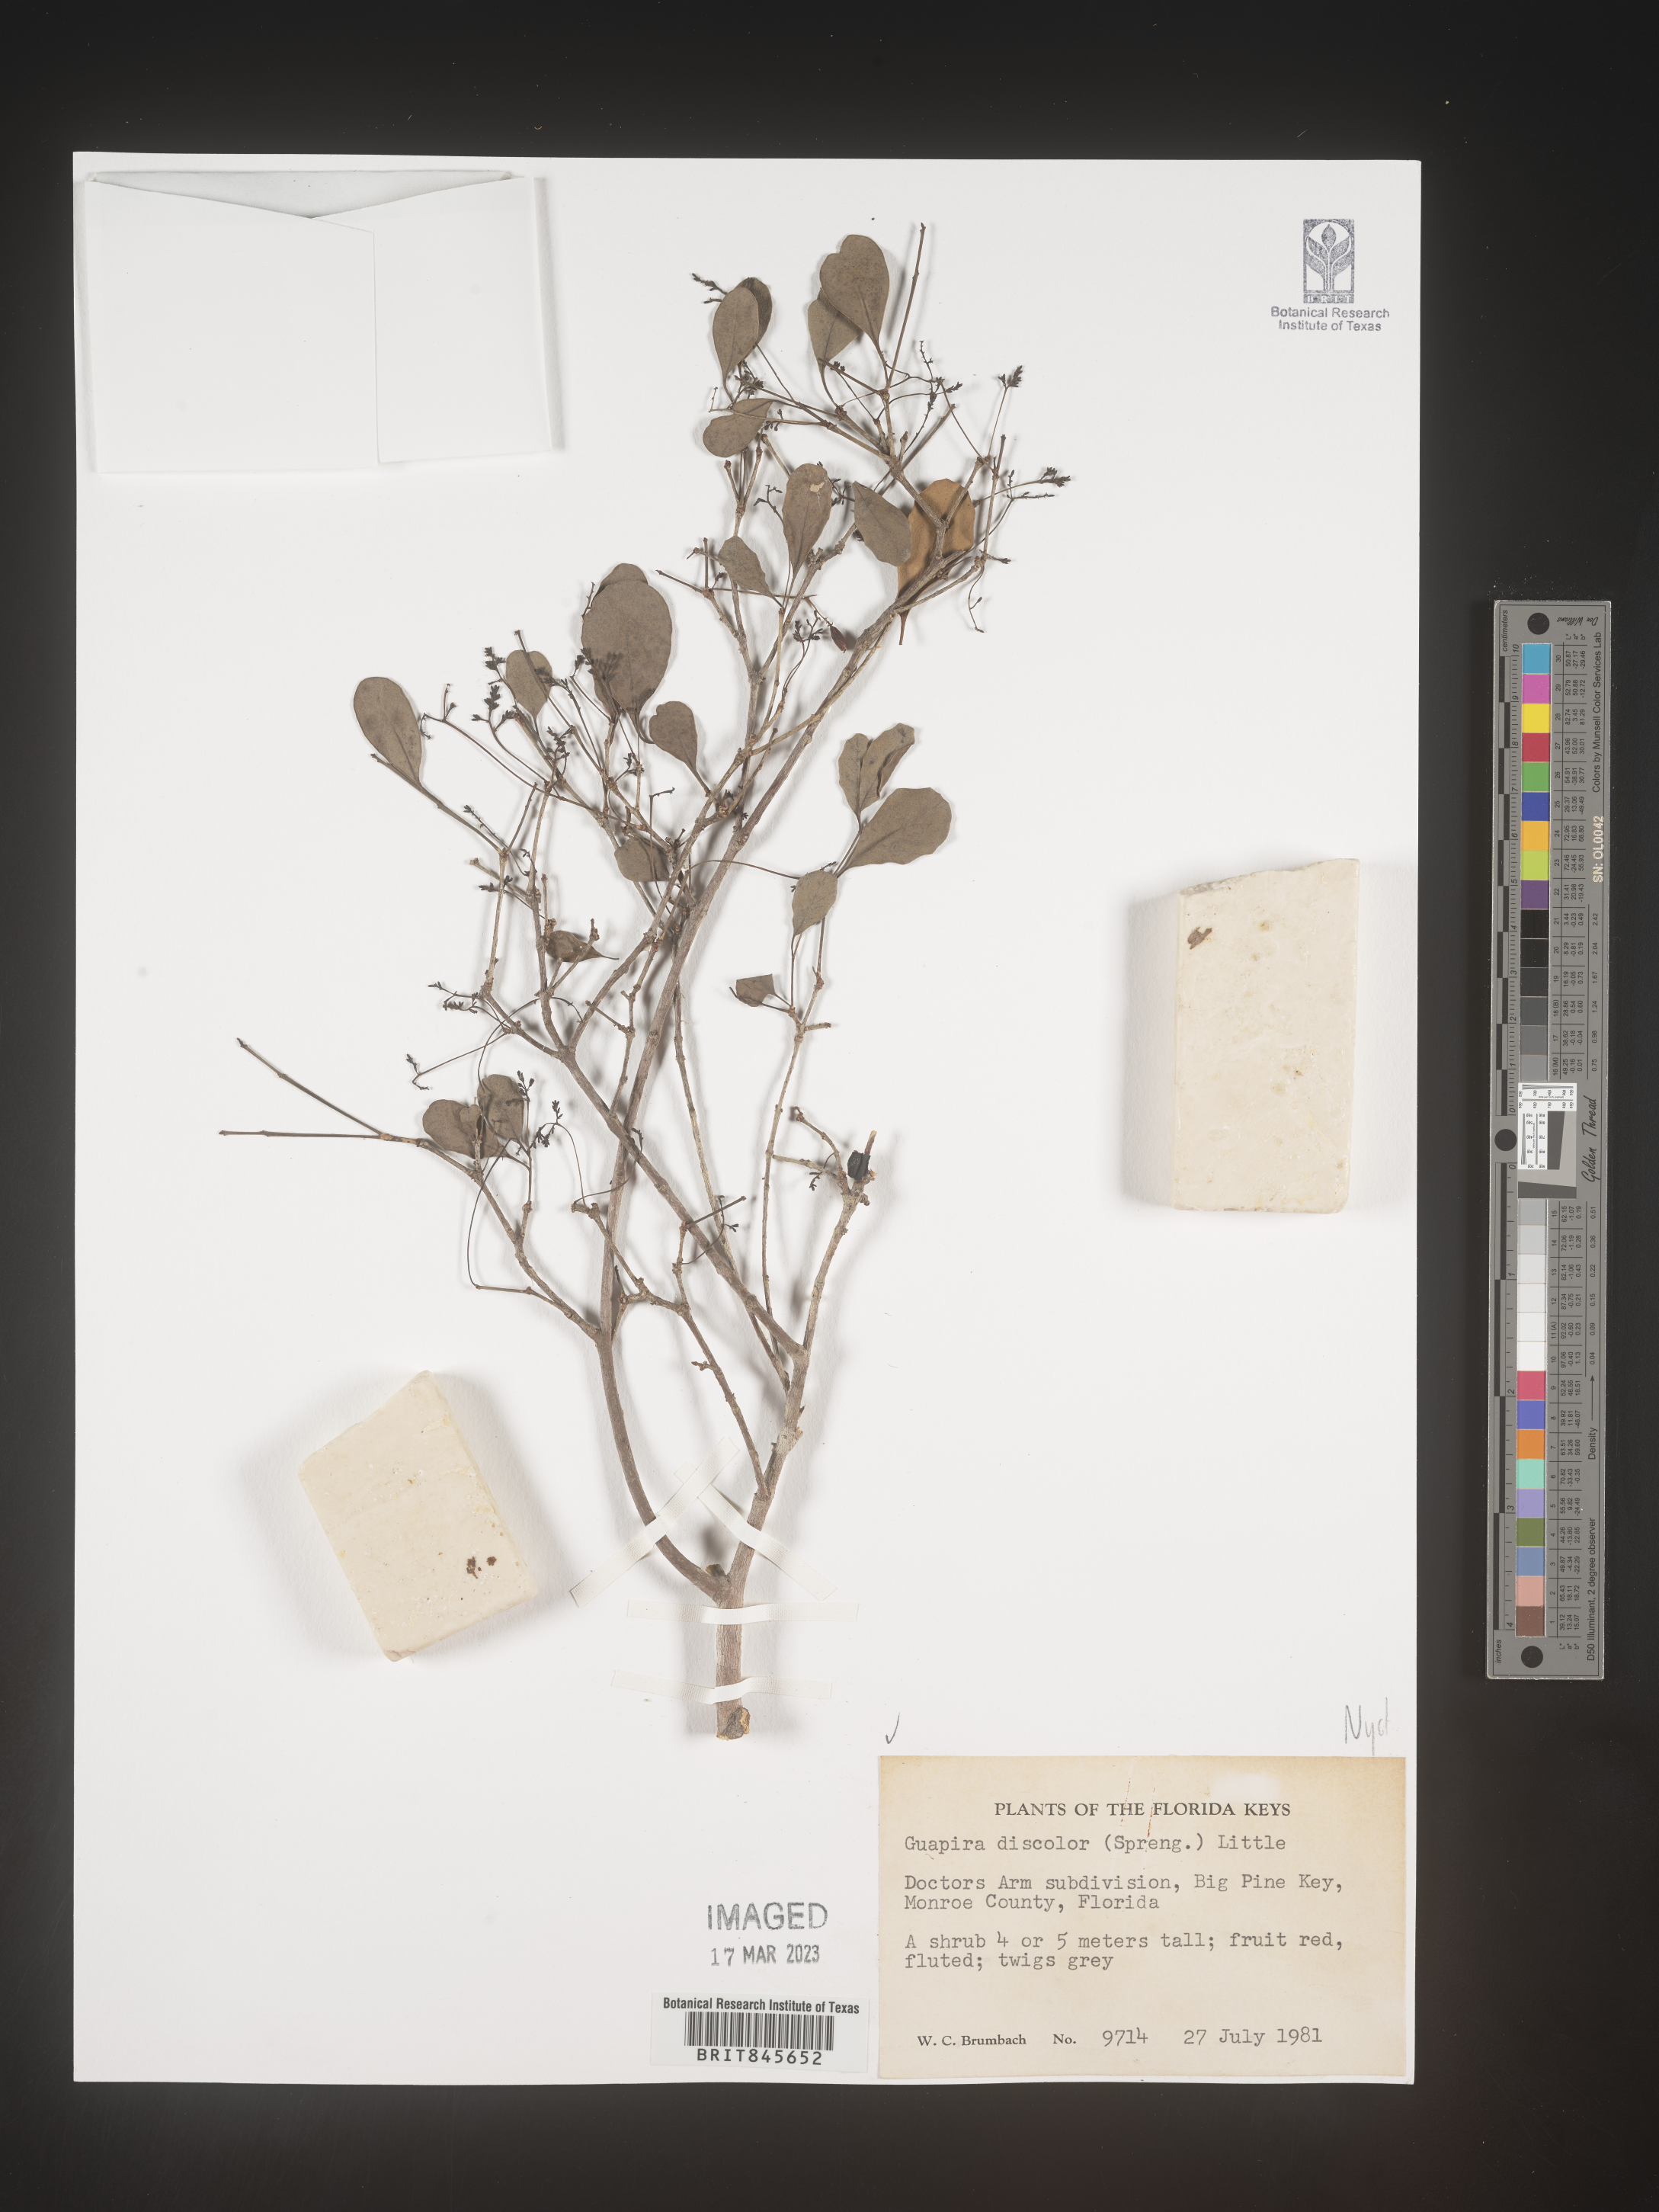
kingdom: Plantae
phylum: Tracheophyta
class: Magnoliopsida
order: Caryophyllales
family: Nyctaginaceae
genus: Guapira
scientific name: Guapira discolor
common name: Beeftree
